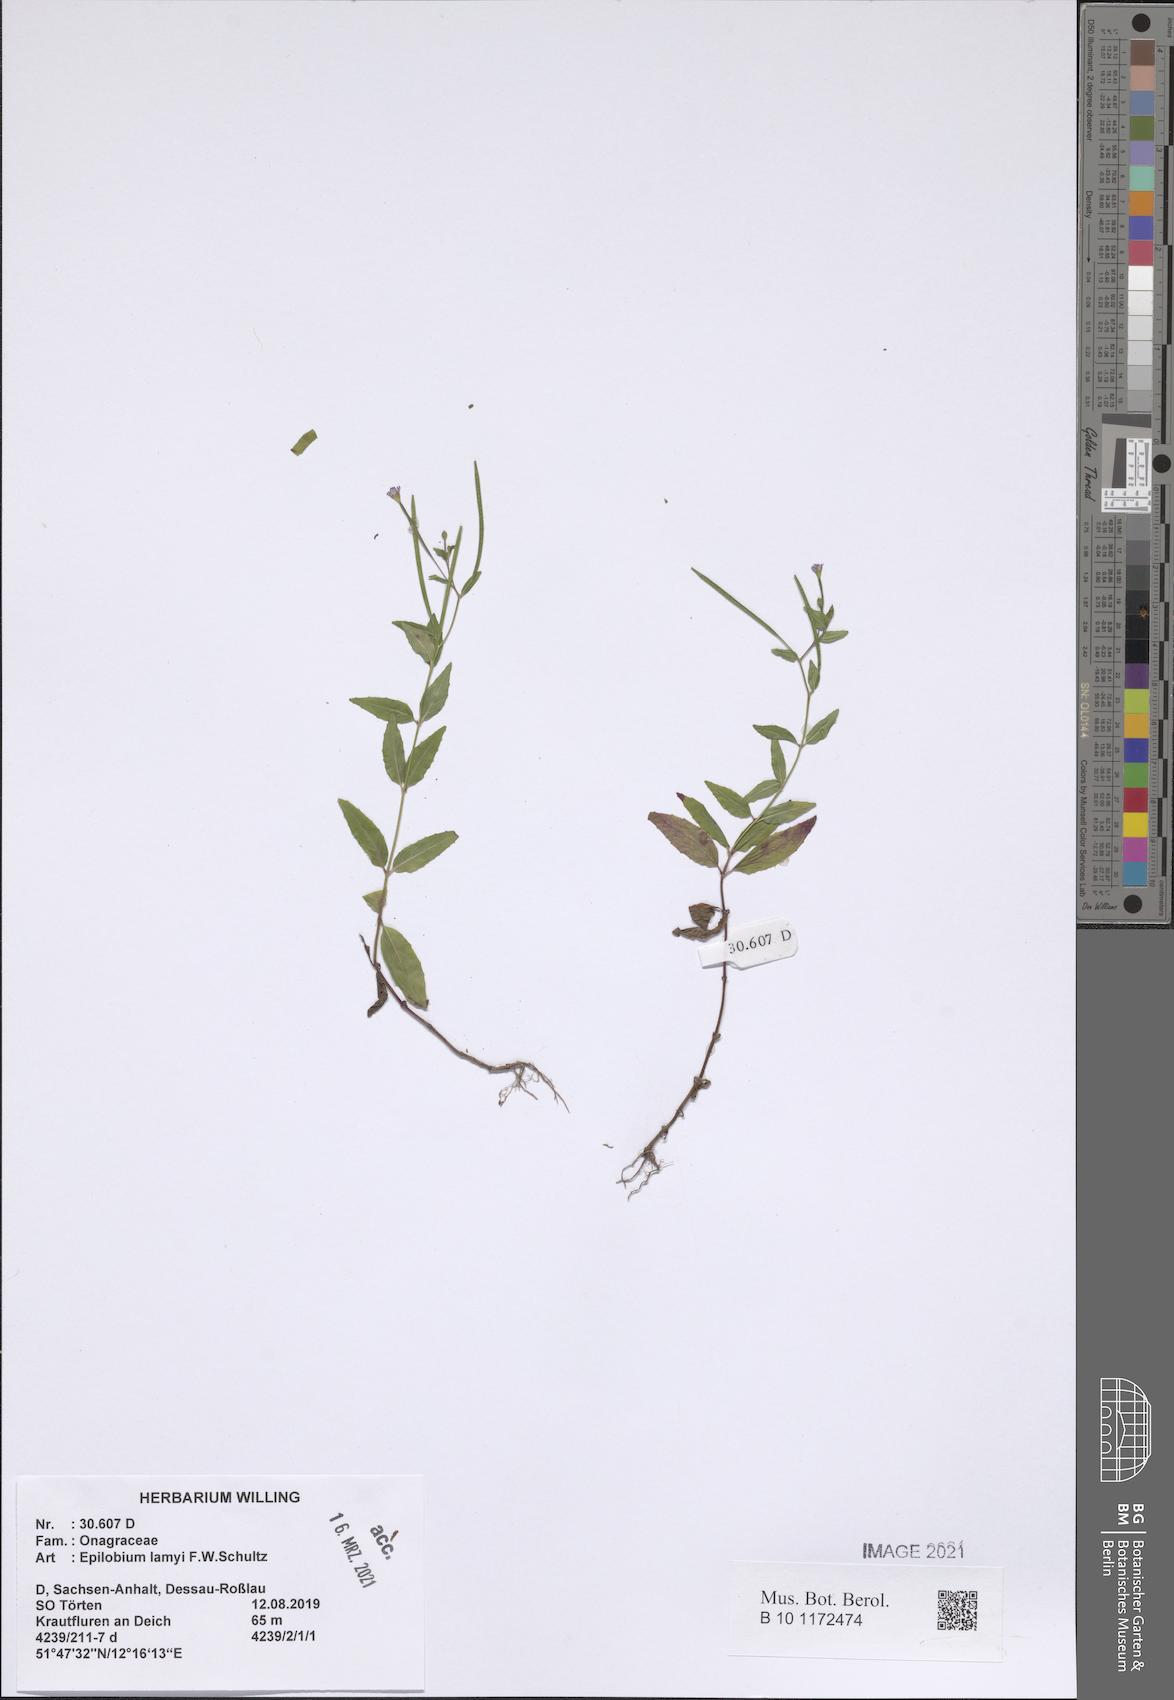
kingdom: Plantae
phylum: Tracheophyta
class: Magnoliopsida
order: Myrtales
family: Onagraceae
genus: Epilobium
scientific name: Epilobium lamyi
